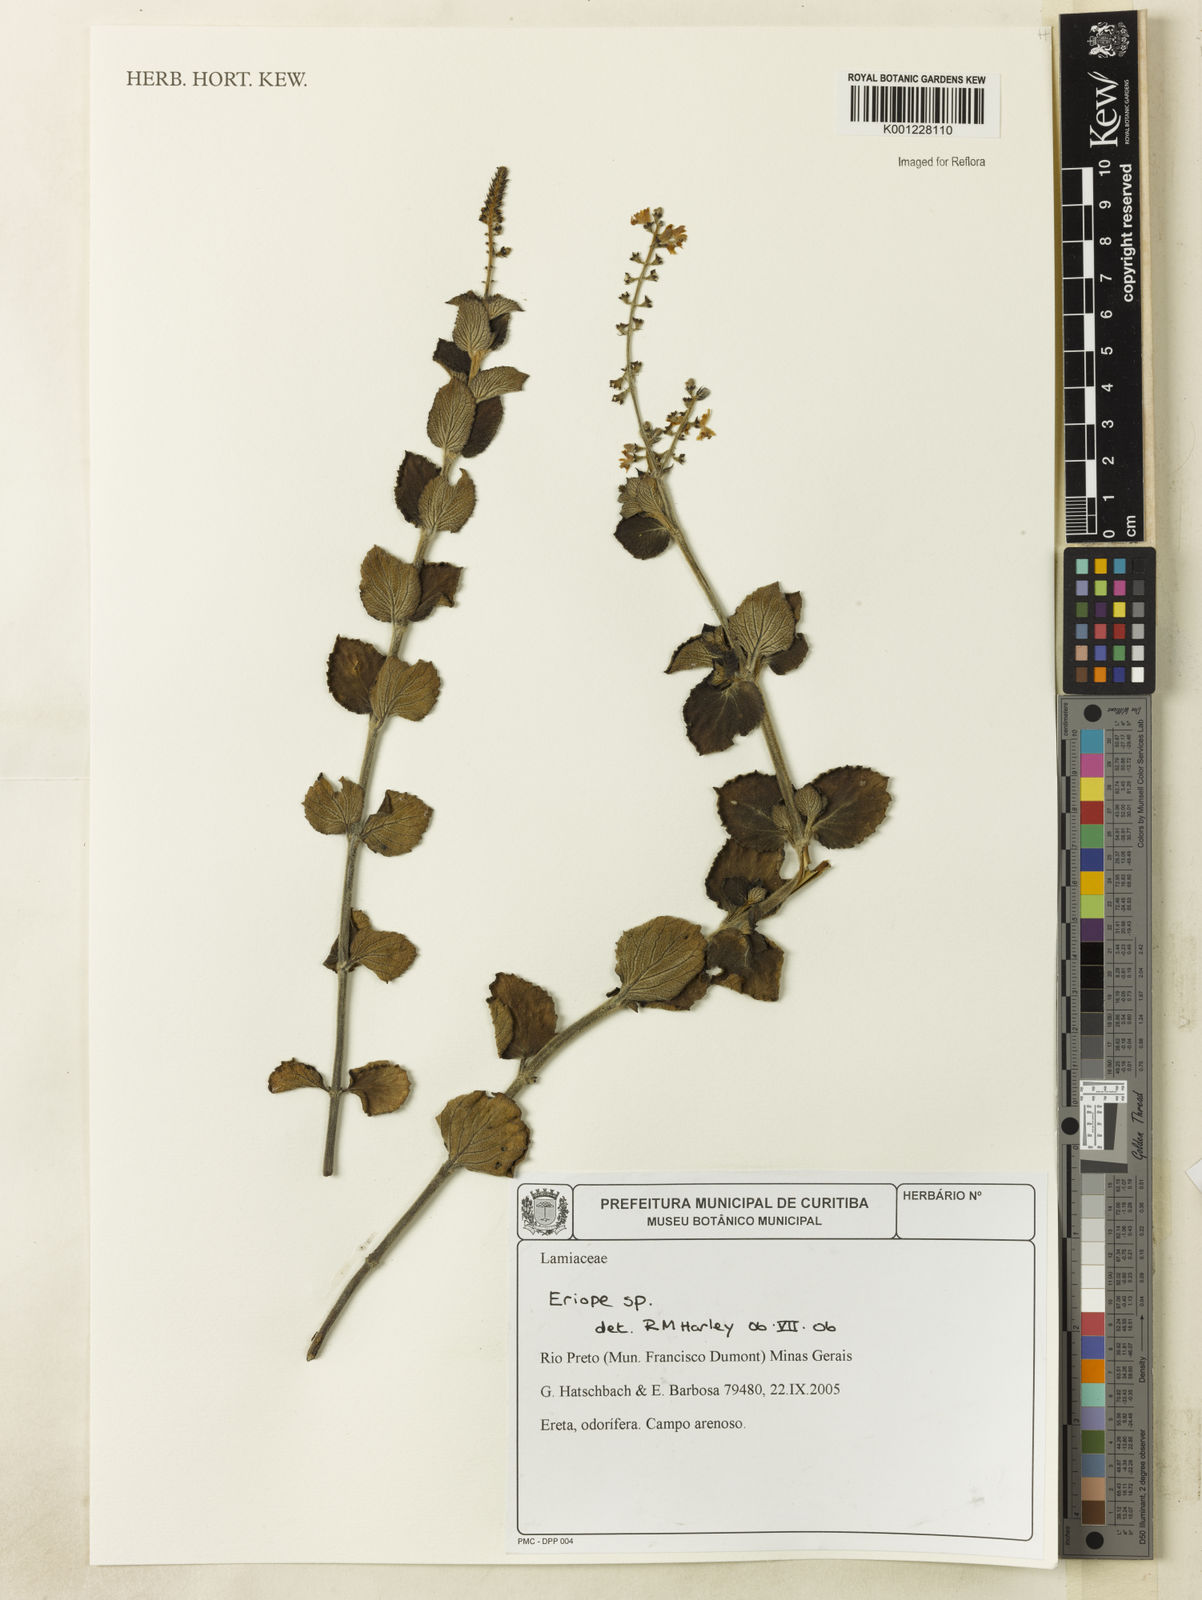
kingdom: Plantae
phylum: Tracheophyta
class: Magnoliopsida
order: Lamiales
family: Lamiaceae
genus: Eriope
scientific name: Eriope
